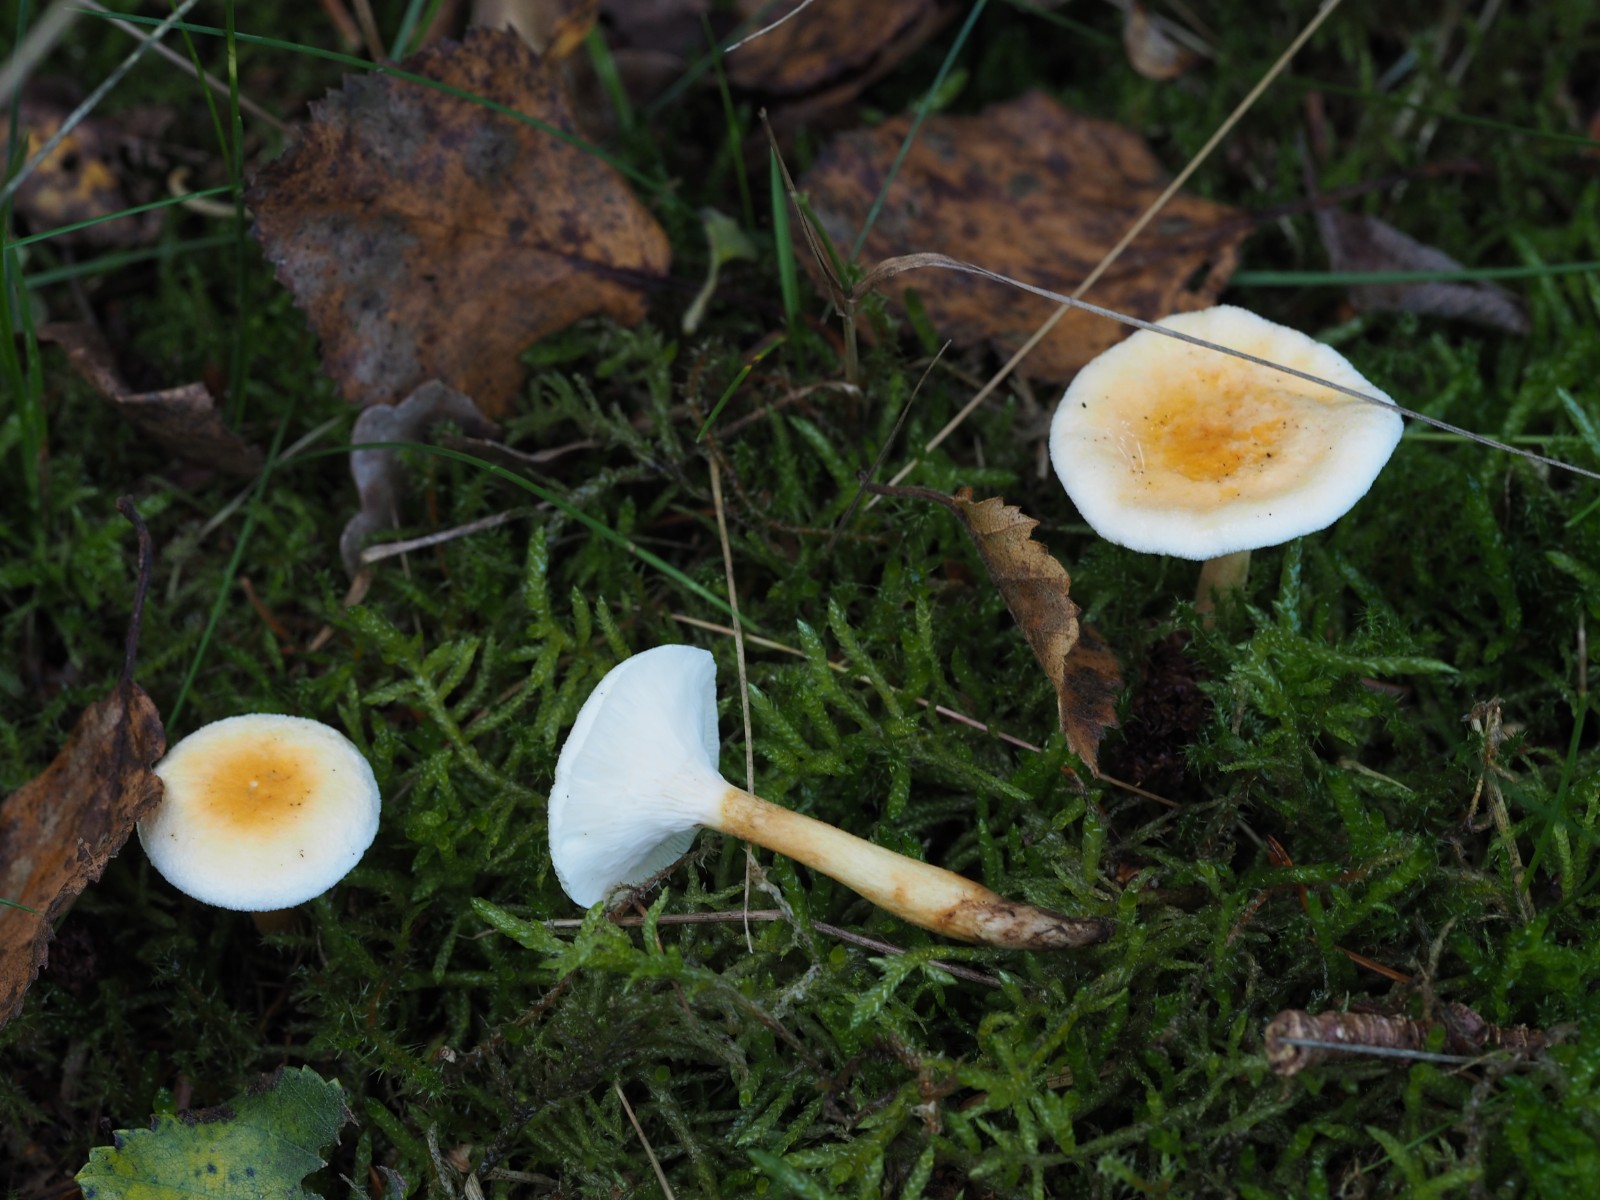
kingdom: Fungi
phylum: Basidiomycota
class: Agaricomycetes
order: Boletales
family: Hygrophoropsidaceae
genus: Hygrophoropsis
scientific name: Hygrophoropsis pallida
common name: bleg orangekantarel
